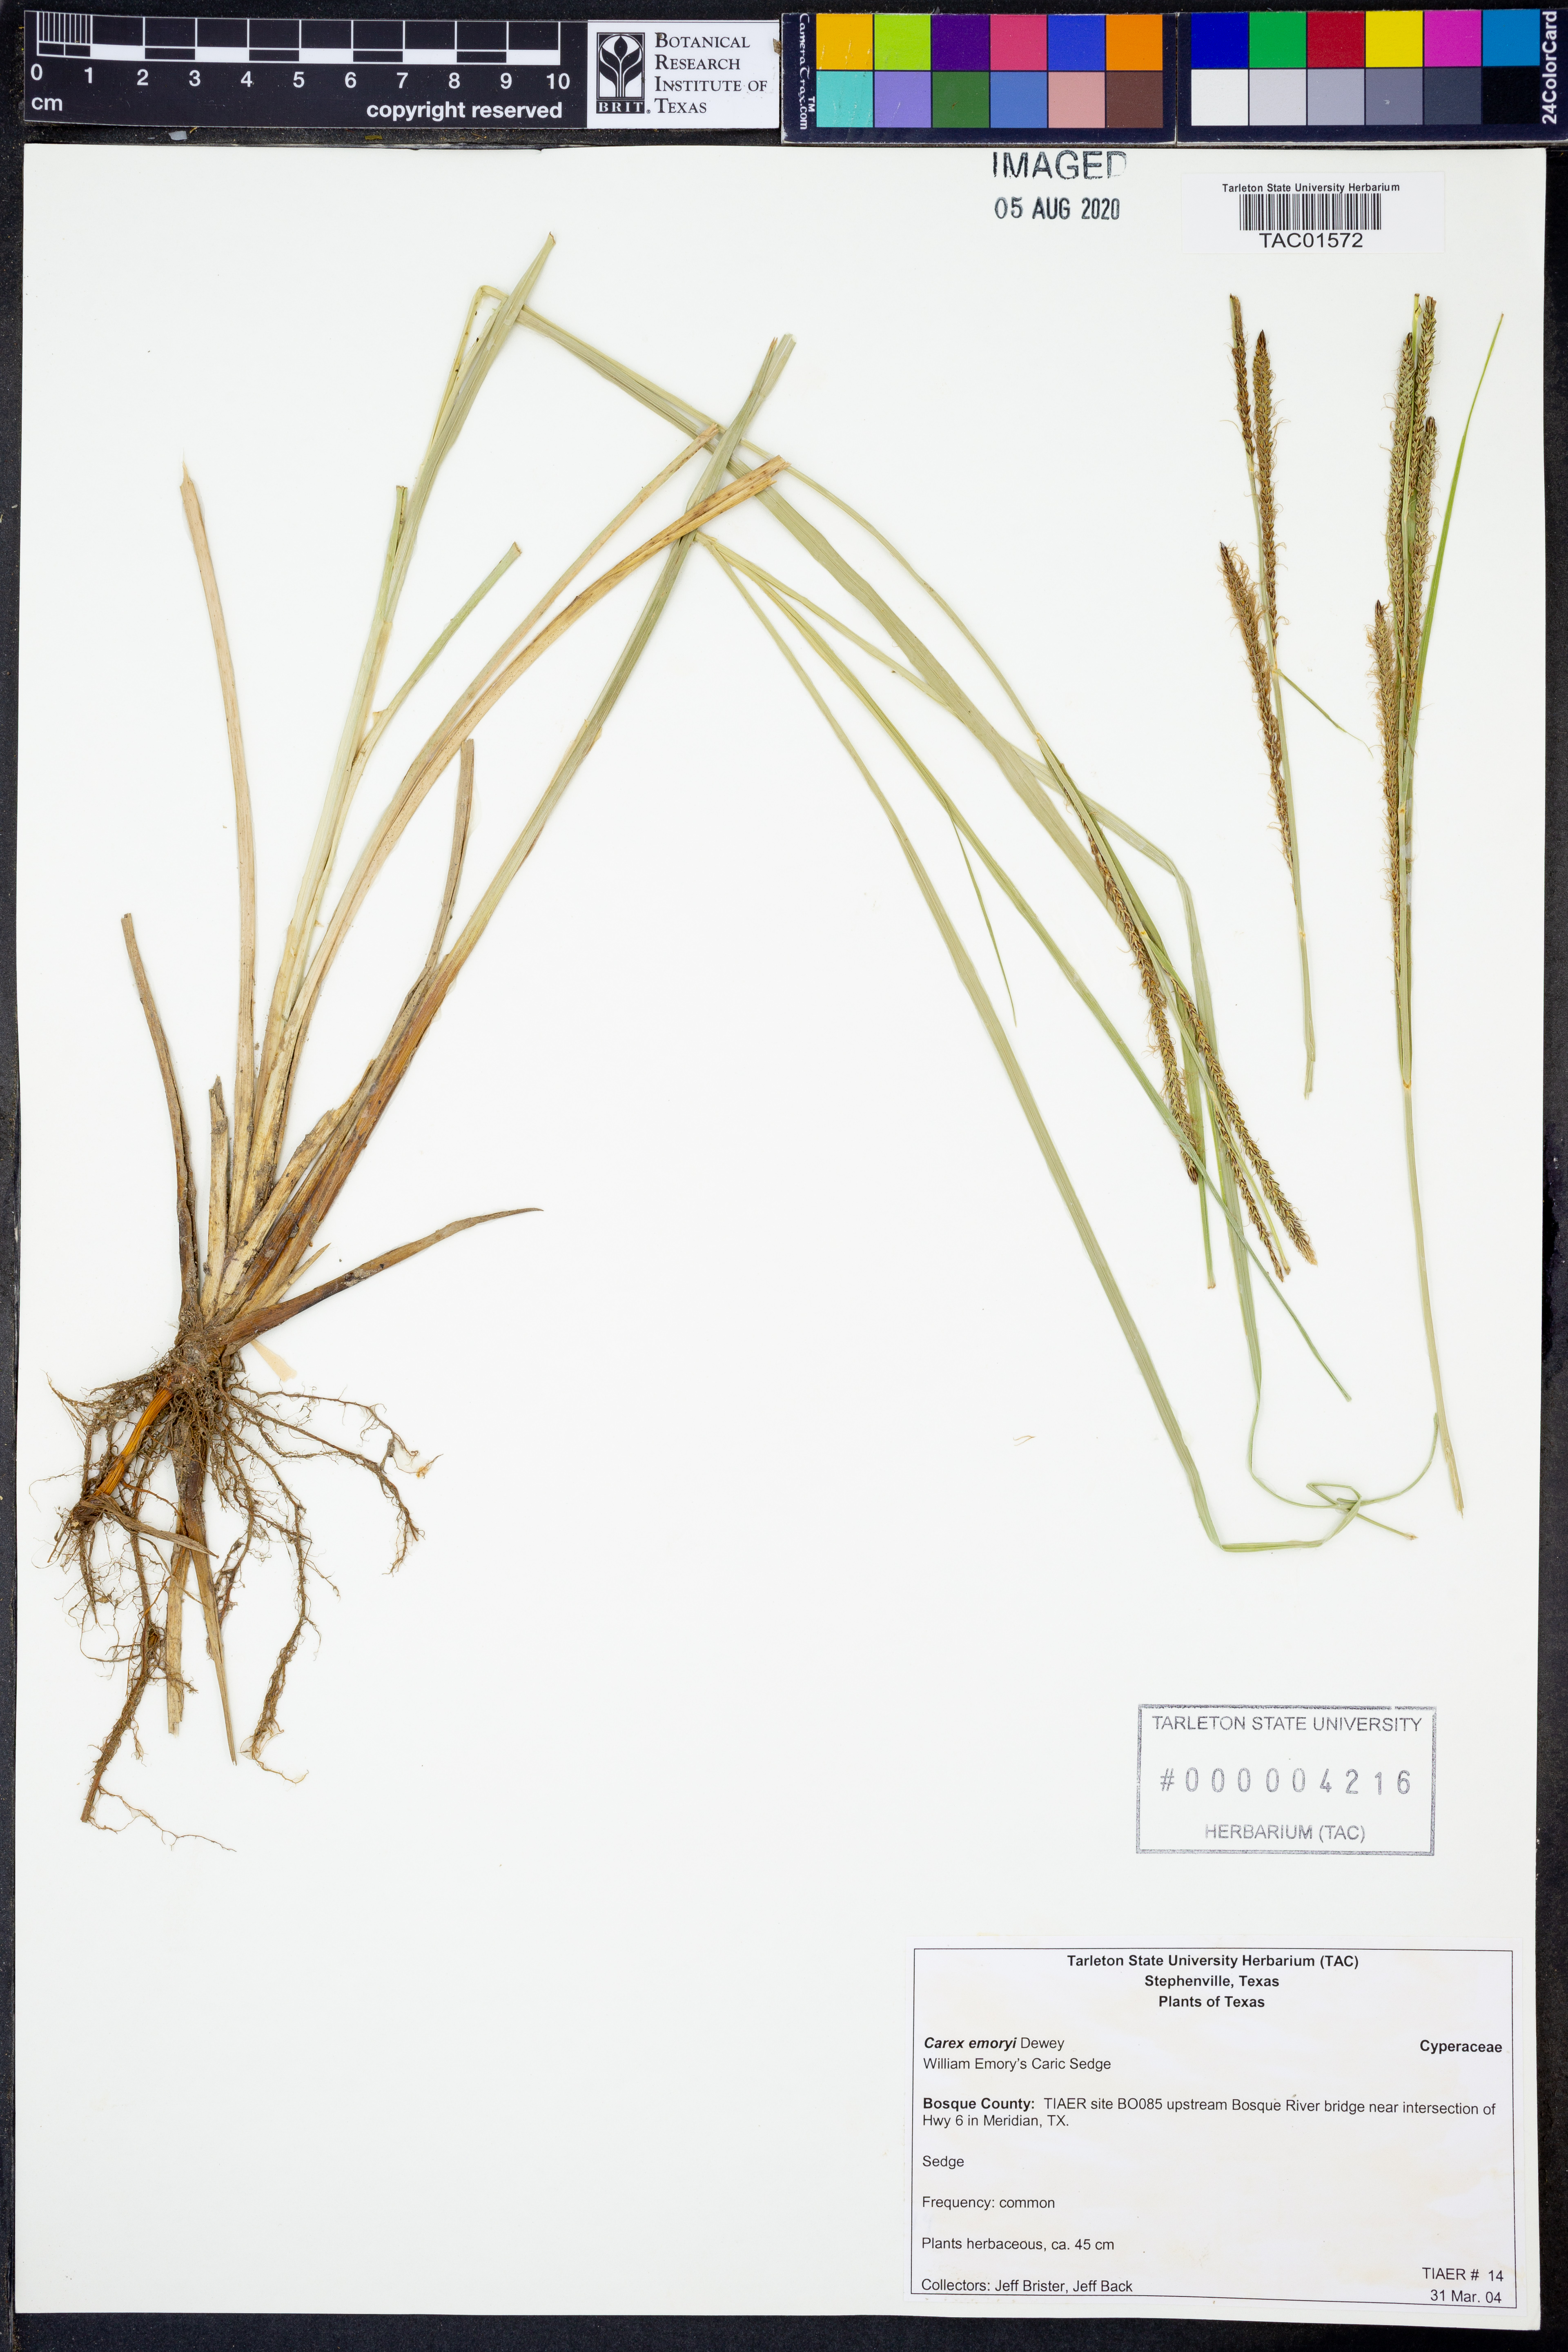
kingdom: Plantae
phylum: Tracheophyta
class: Liliopsida
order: Poales
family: Cyperaceae
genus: Eleocharis
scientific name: Eleocharis montevidensis
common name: Sand spike-rush
